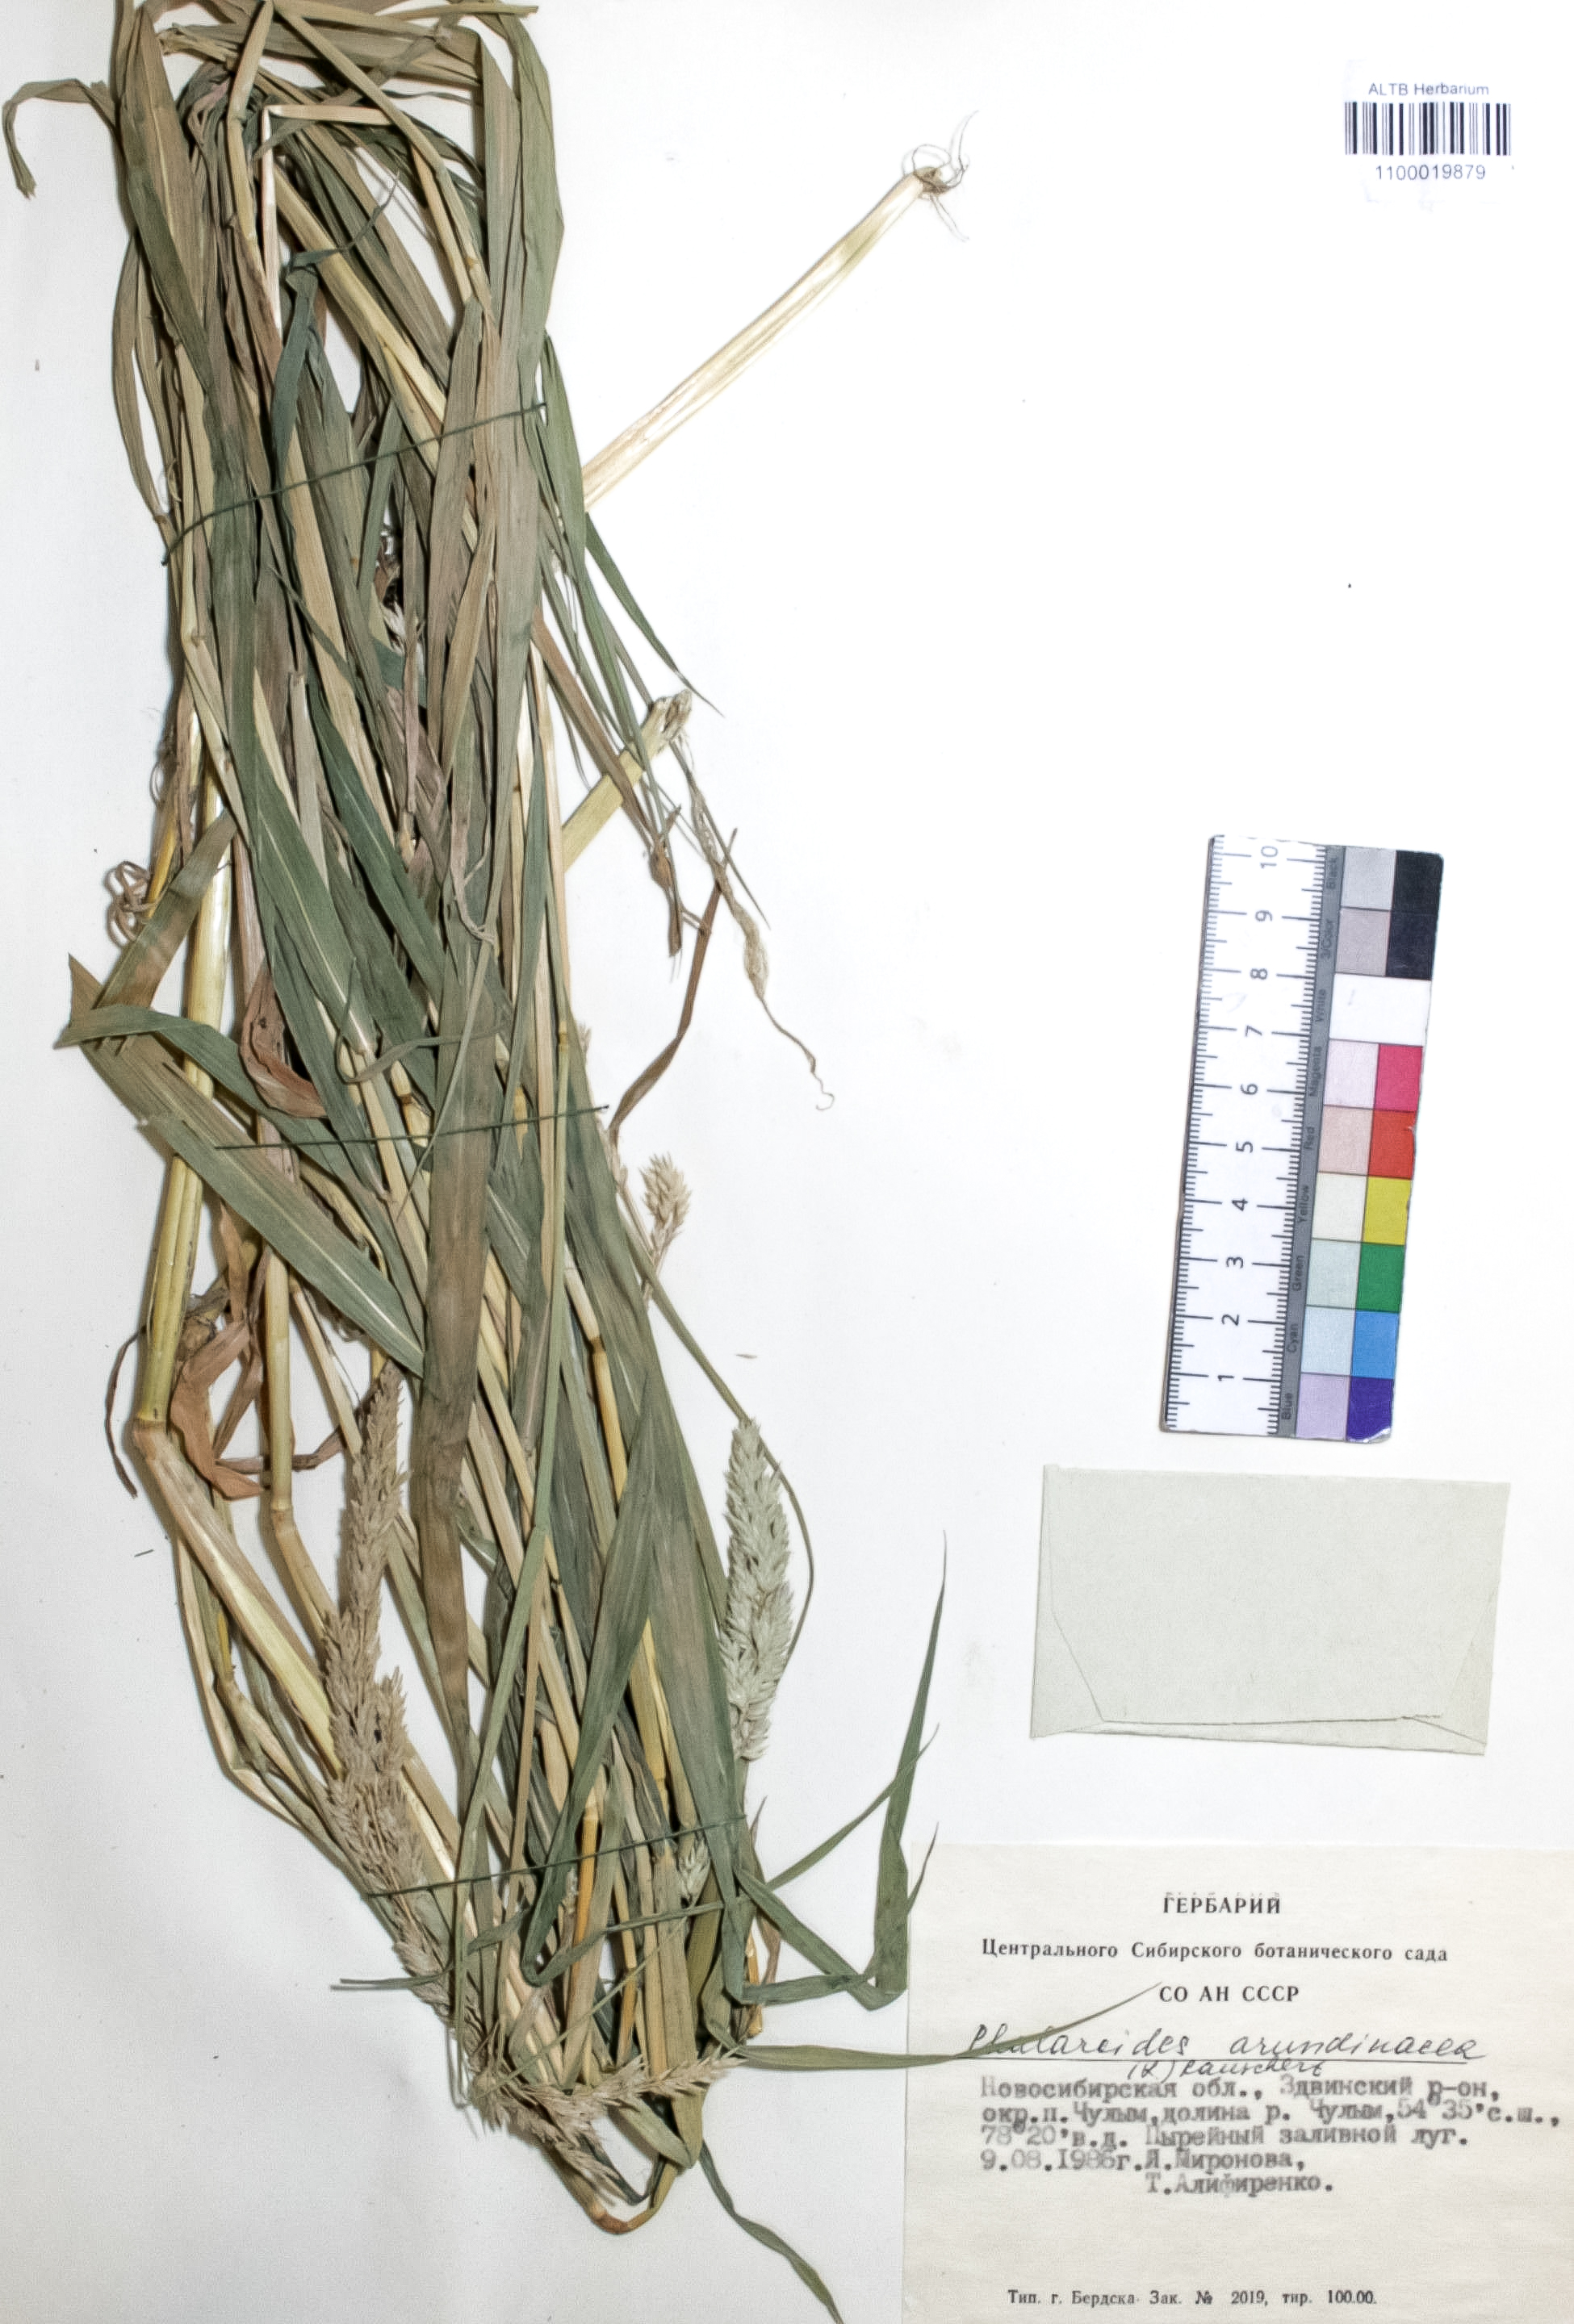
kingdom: Plantae
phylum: Tracheophyta
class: Liliopsida
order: Poales
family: Poaceae
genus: Phalaris
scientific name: Phalaris arundinacea
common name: Reed canary-grass
